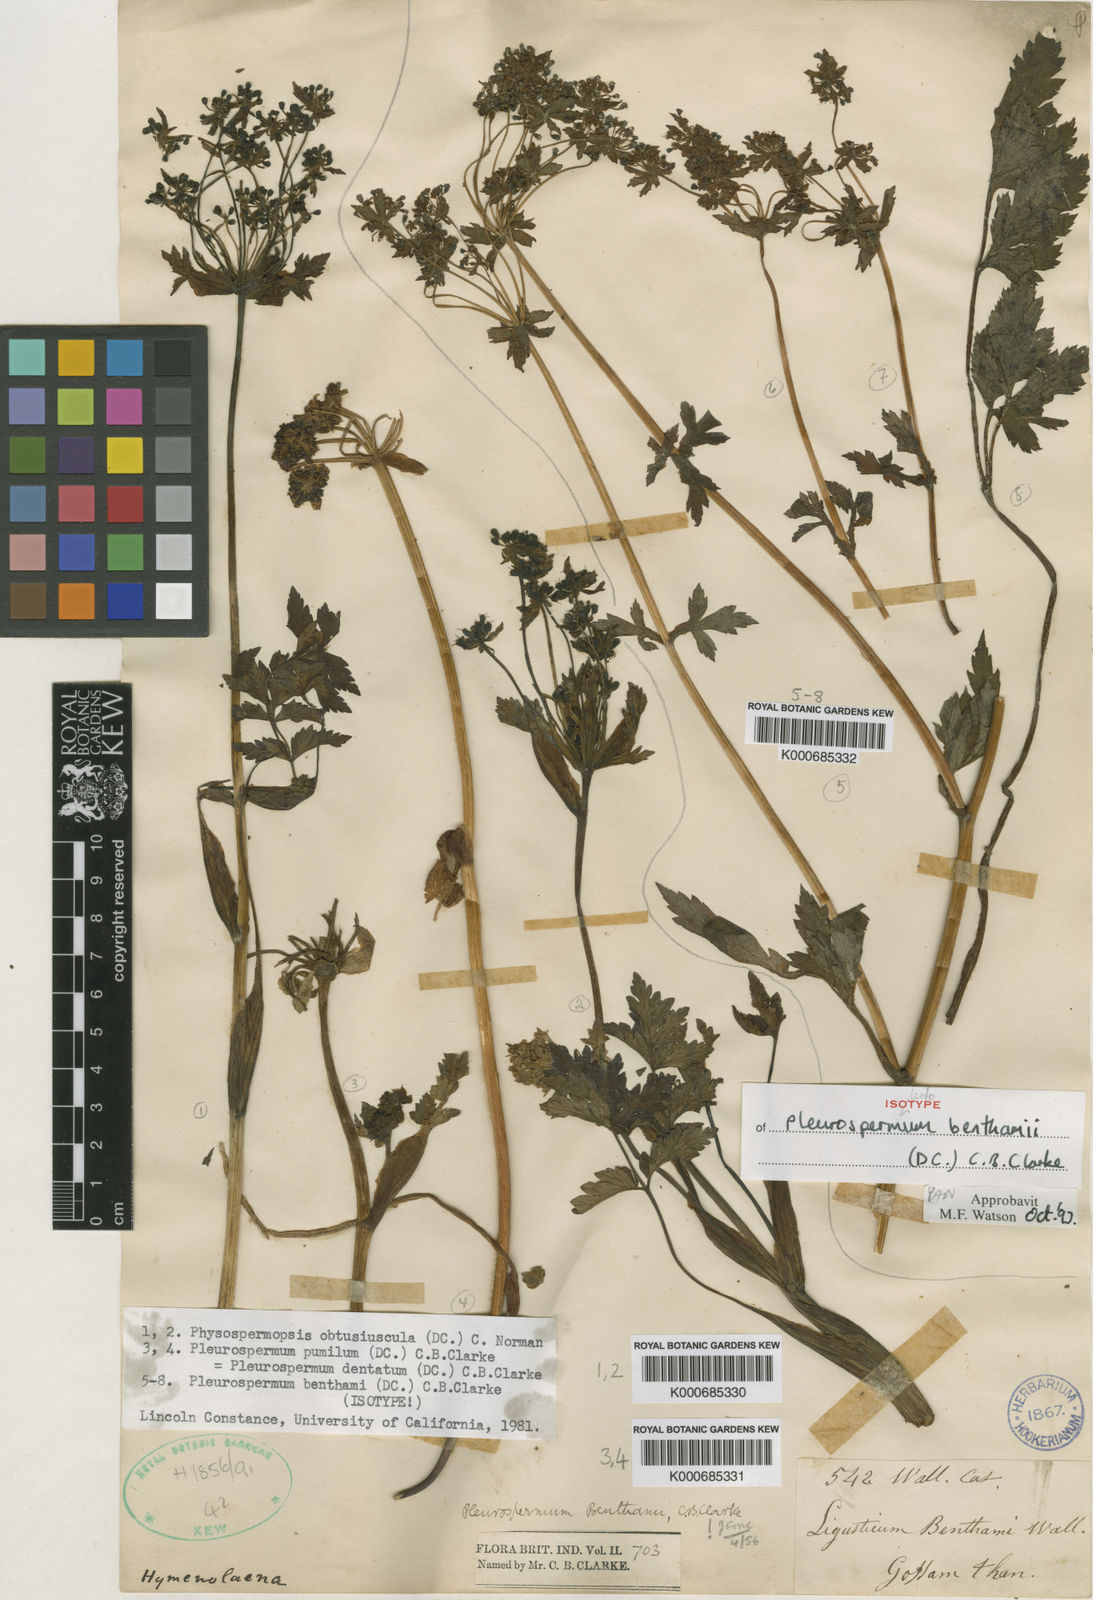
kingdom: Plantae
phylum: Tracheophyta
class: Magnoliopsida
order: Apiales
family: Apiaceae
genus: Hymenidium
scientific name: Hymenidium benthamii
